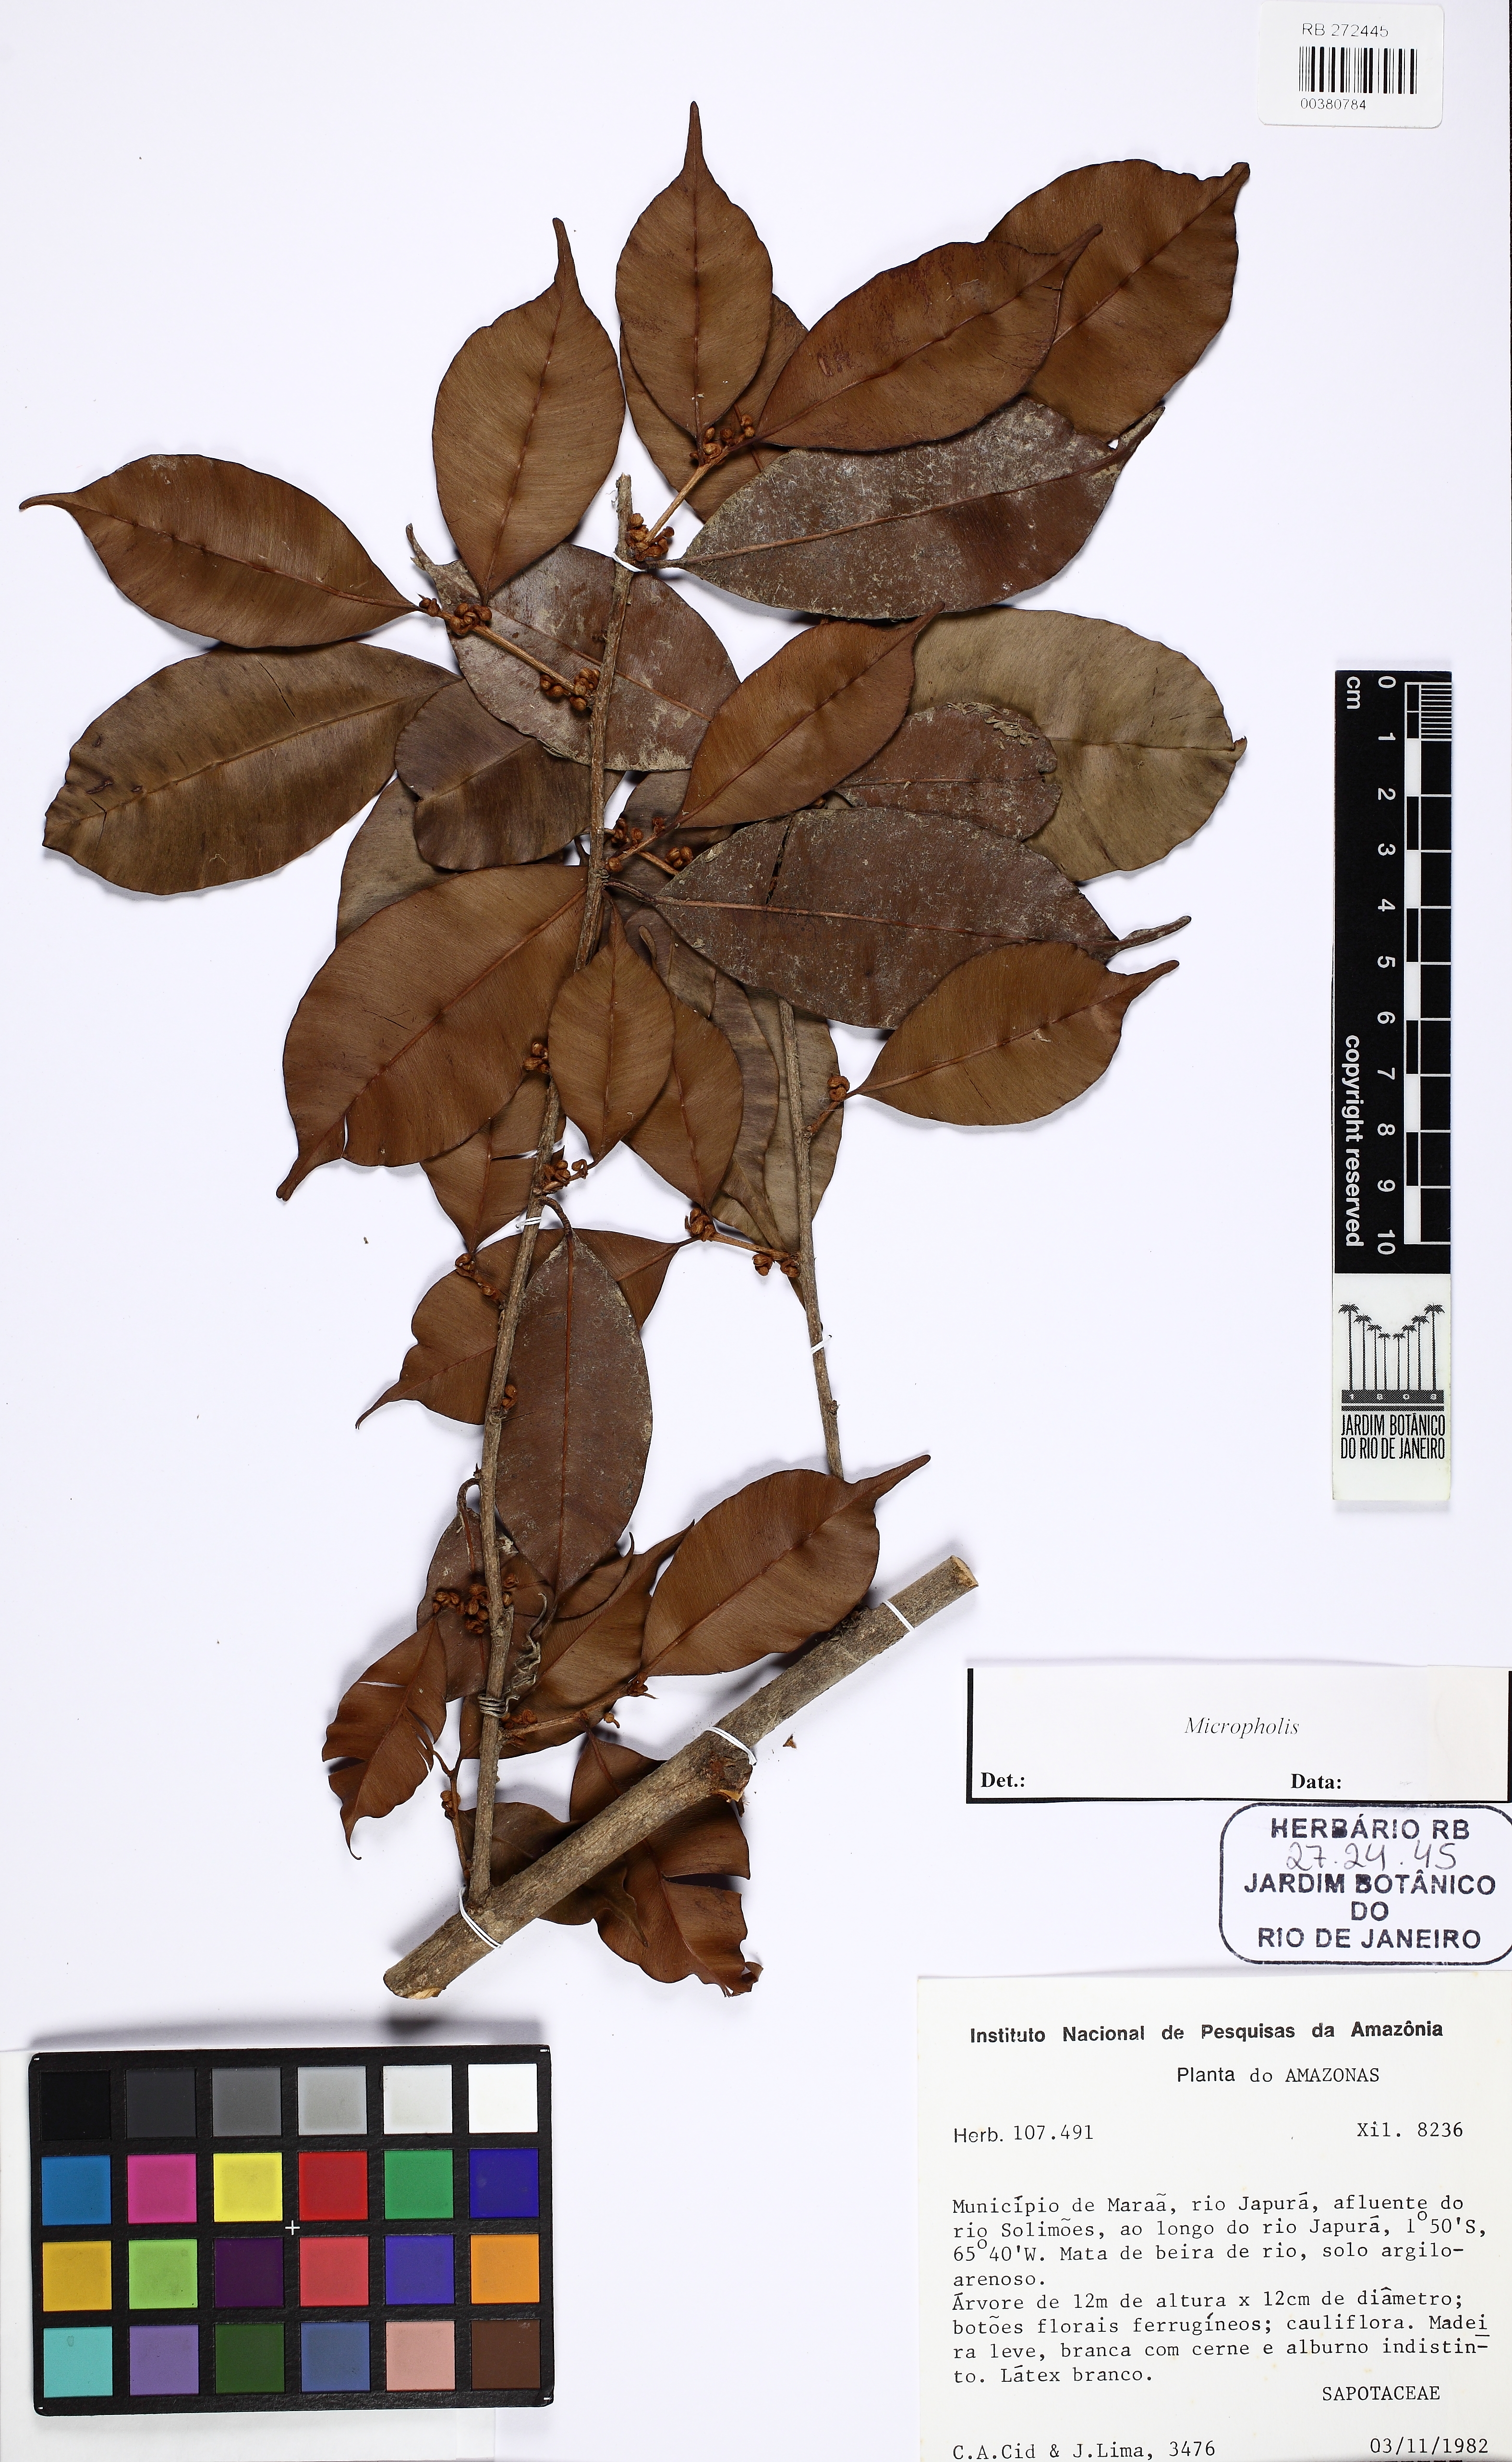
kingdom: Plantae
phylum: Tracheophyta
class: Magnoliopsida
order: Ericales
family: Sapotaceae
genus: Micropholis
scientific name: Micropholis
